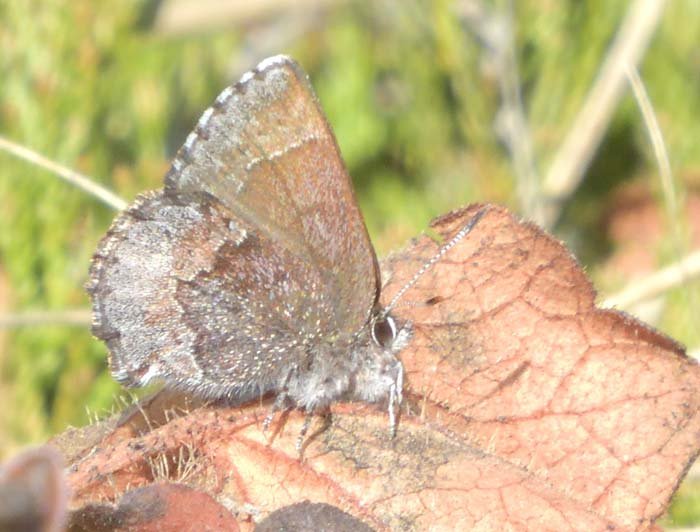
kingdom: Animalia
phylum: Arthropoda
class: Insecta
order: Lepidoptera
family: Lycaenidae
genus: Callophrys
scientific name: Callophrys polios
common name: Hoary Elfin
